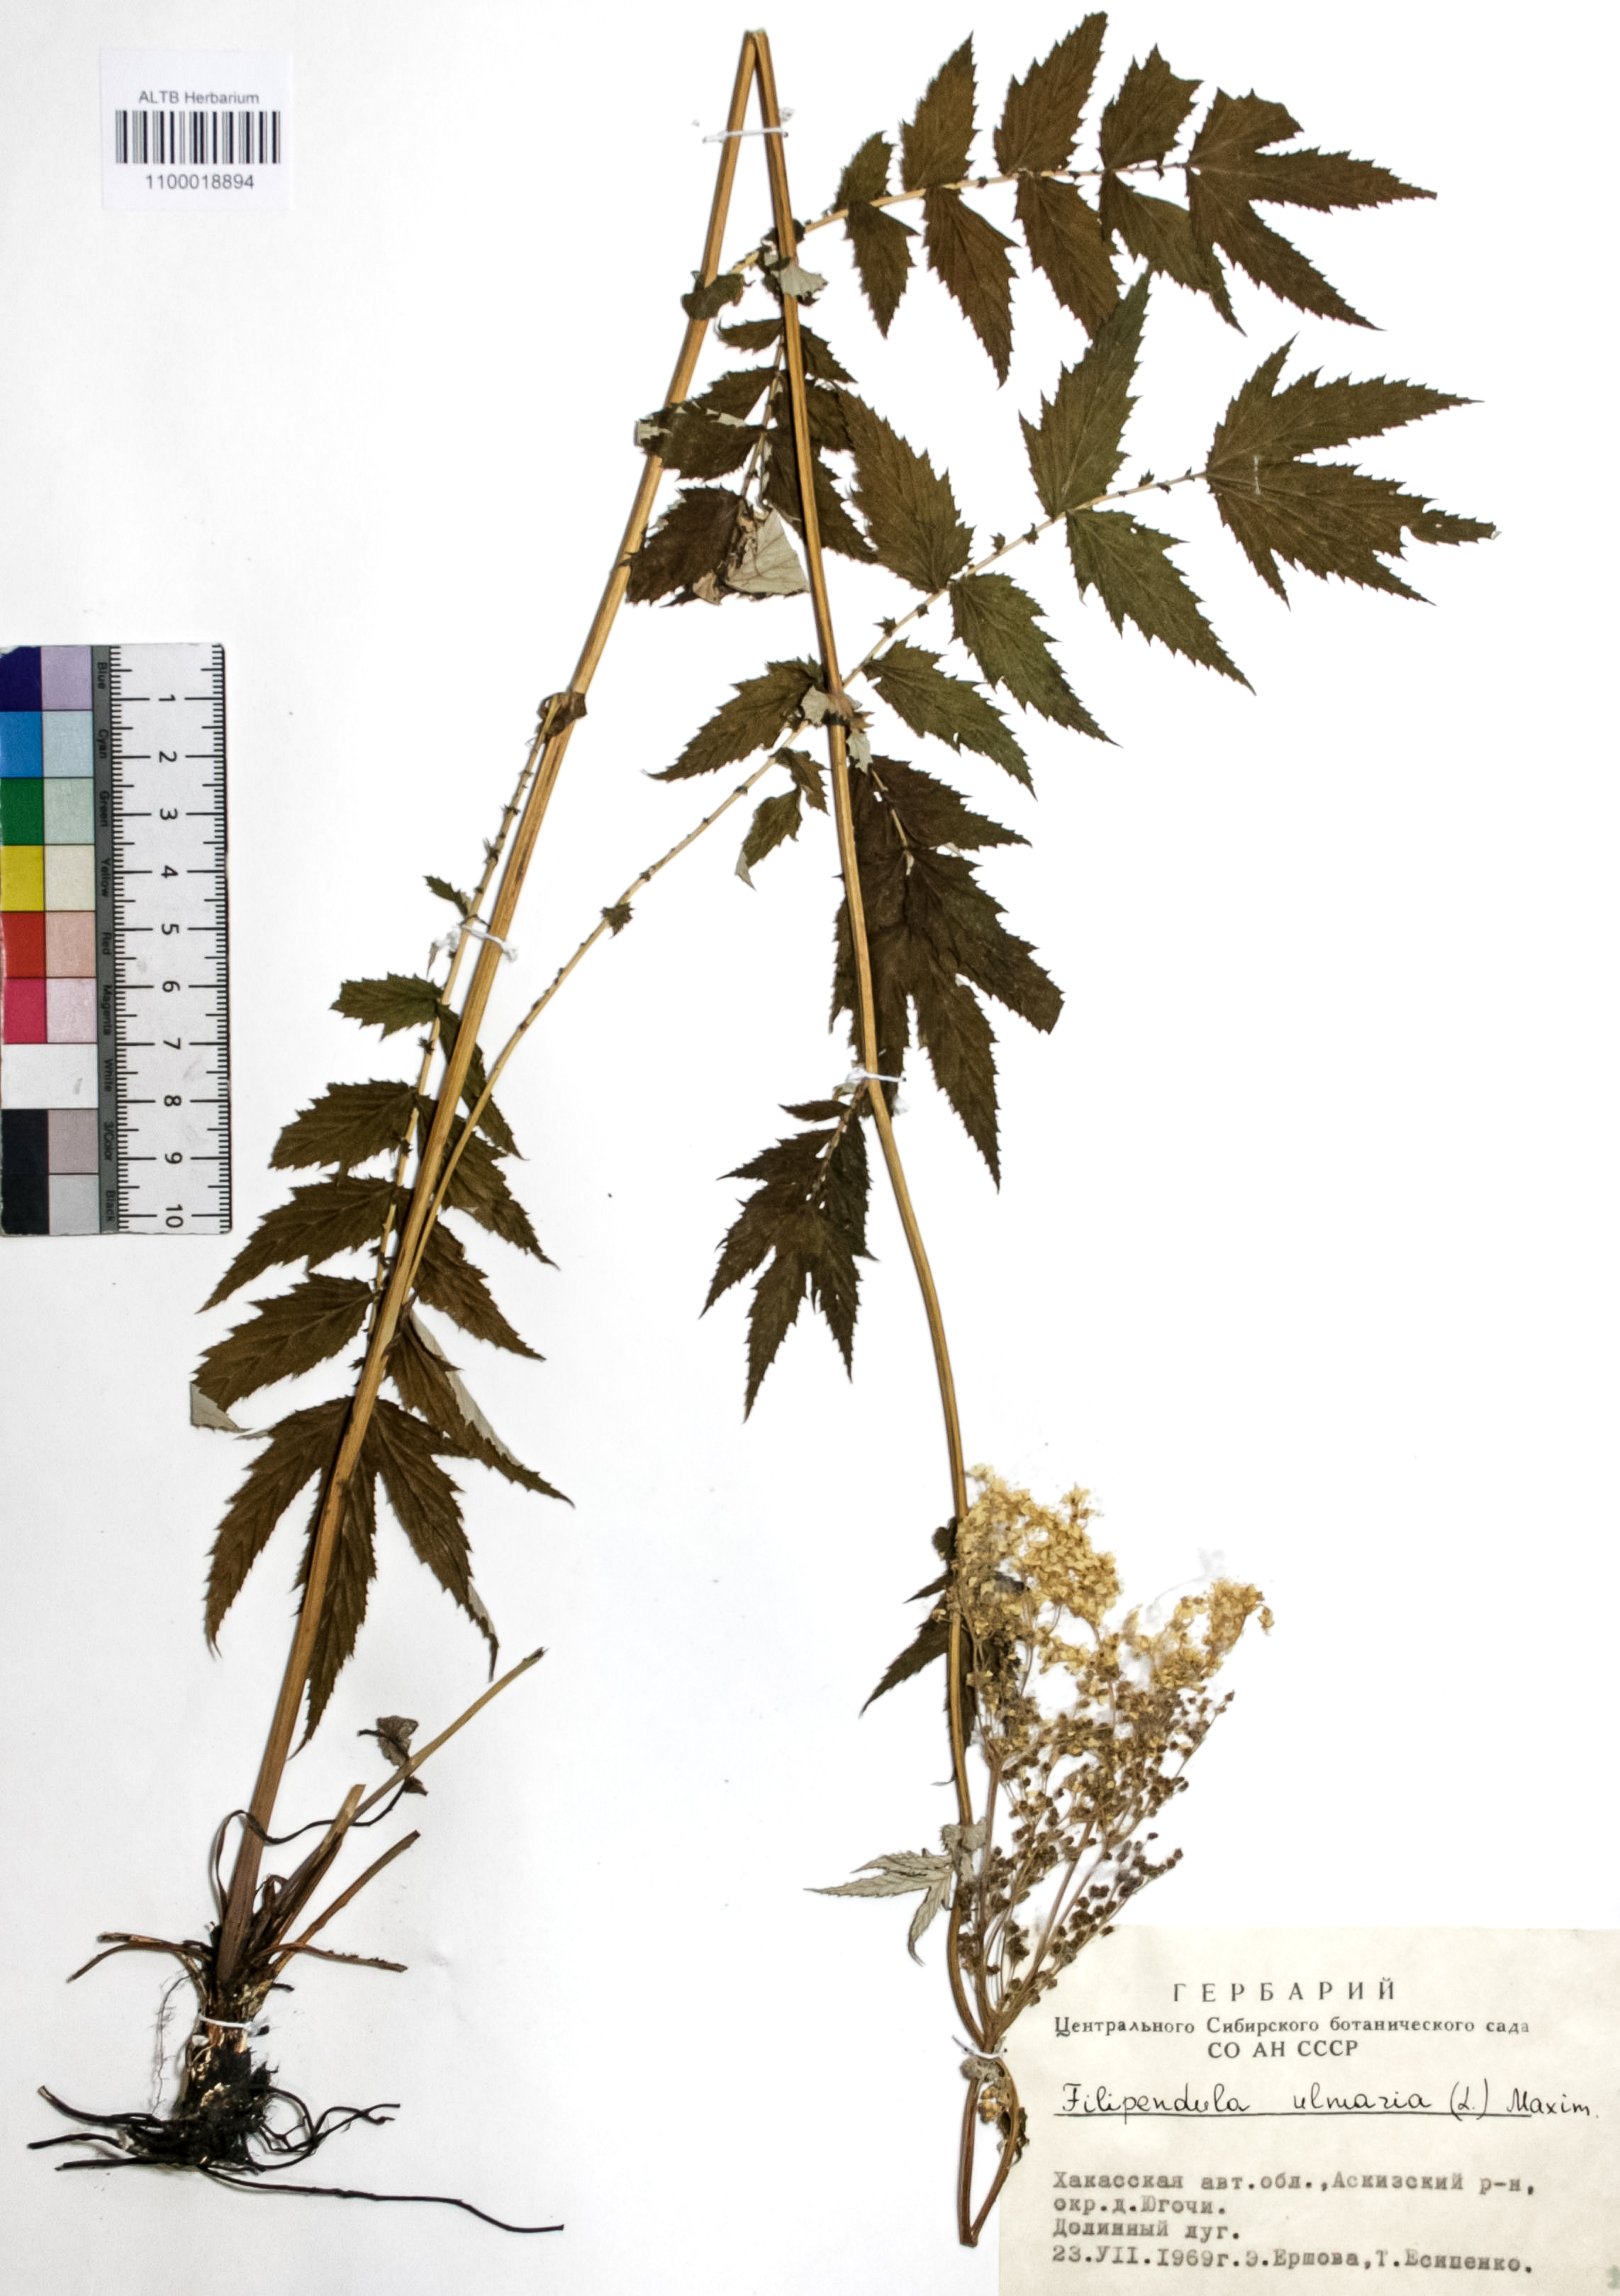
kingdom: Plantae
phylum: Tracheophyta
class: Magnoliopsida
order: Rosales
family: Rosaceae
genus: Filipendula
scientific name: Filipendula ulmaria
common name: Meadowsweet
